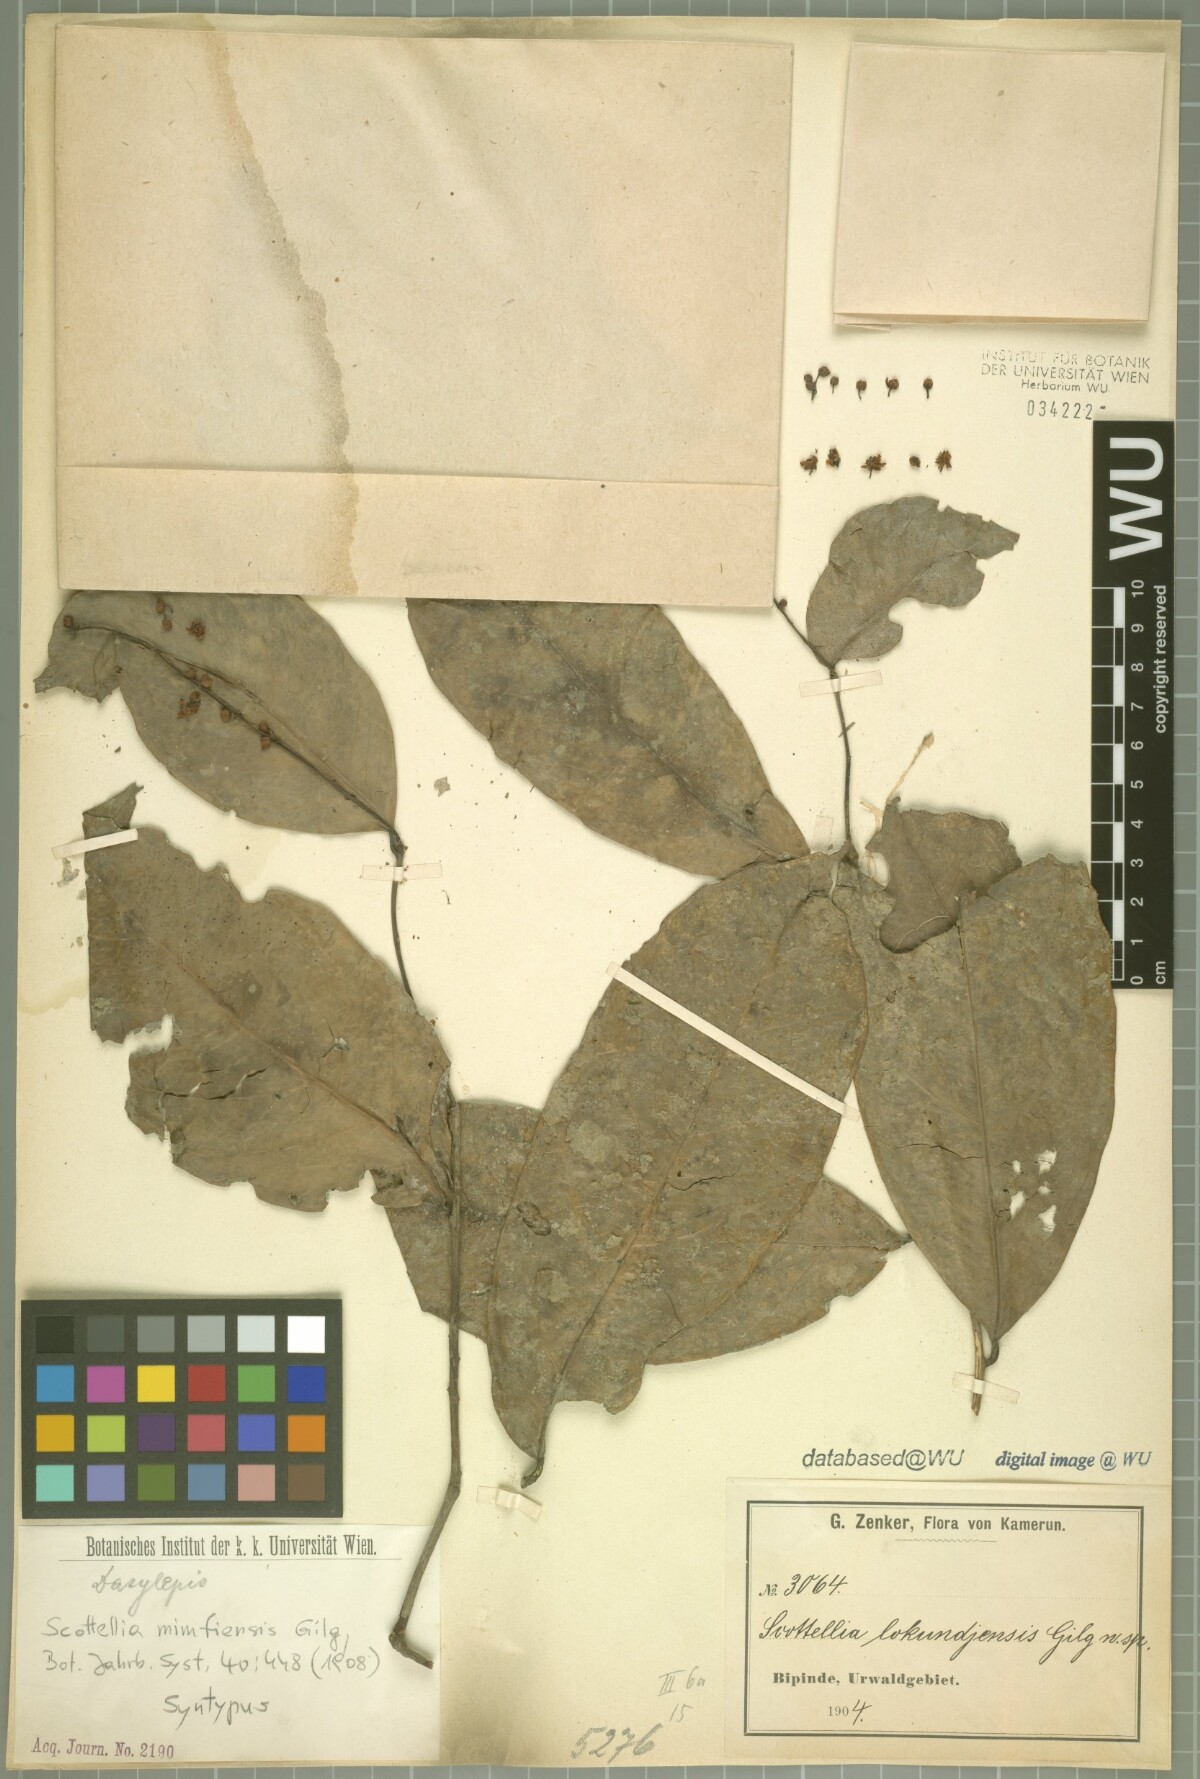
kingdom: Plantae
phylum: Tracheophyta
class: Magnoliopsida
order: Malpighiales
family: Achariaceae
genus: Scottellia
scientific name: Scottellia klaineana
